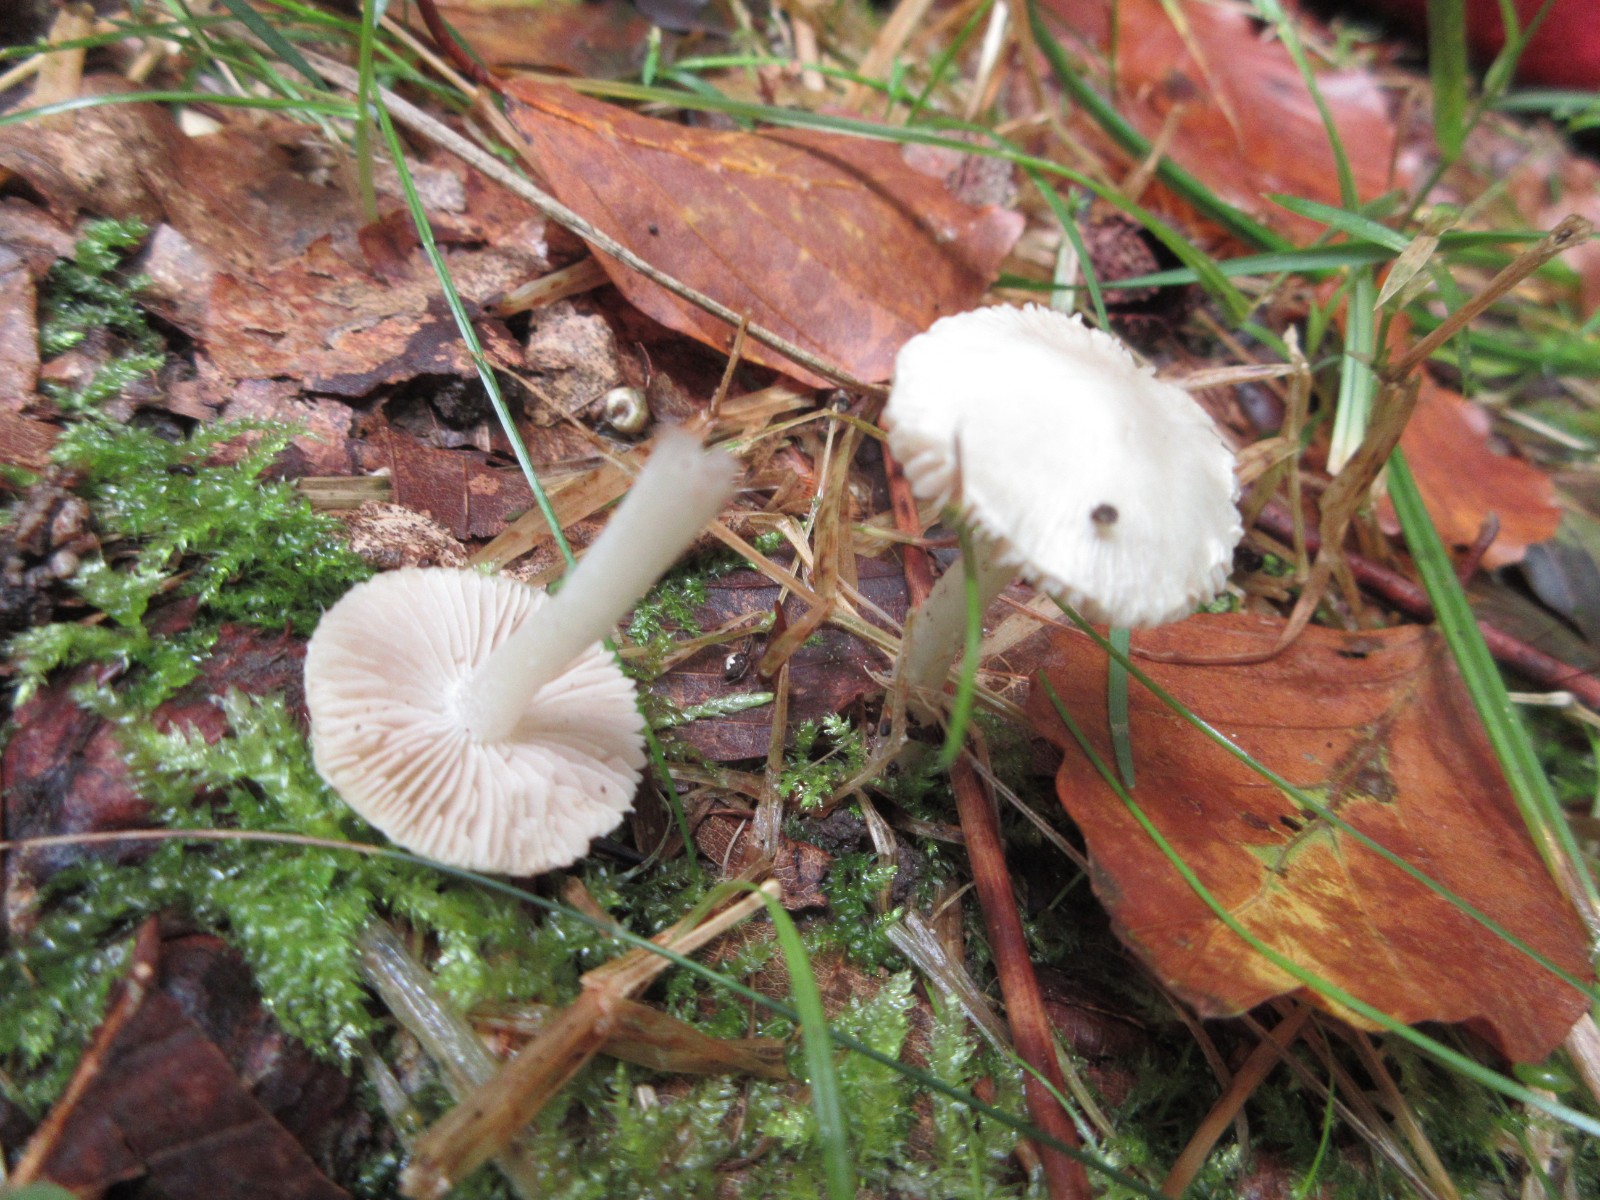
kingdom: Fungi
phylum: Basidiomycota
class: Agaricomycetes
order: Agaricales
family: Inocybaceae
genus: Inocybe
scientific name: Inocybe
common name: almindelig trævlhat
